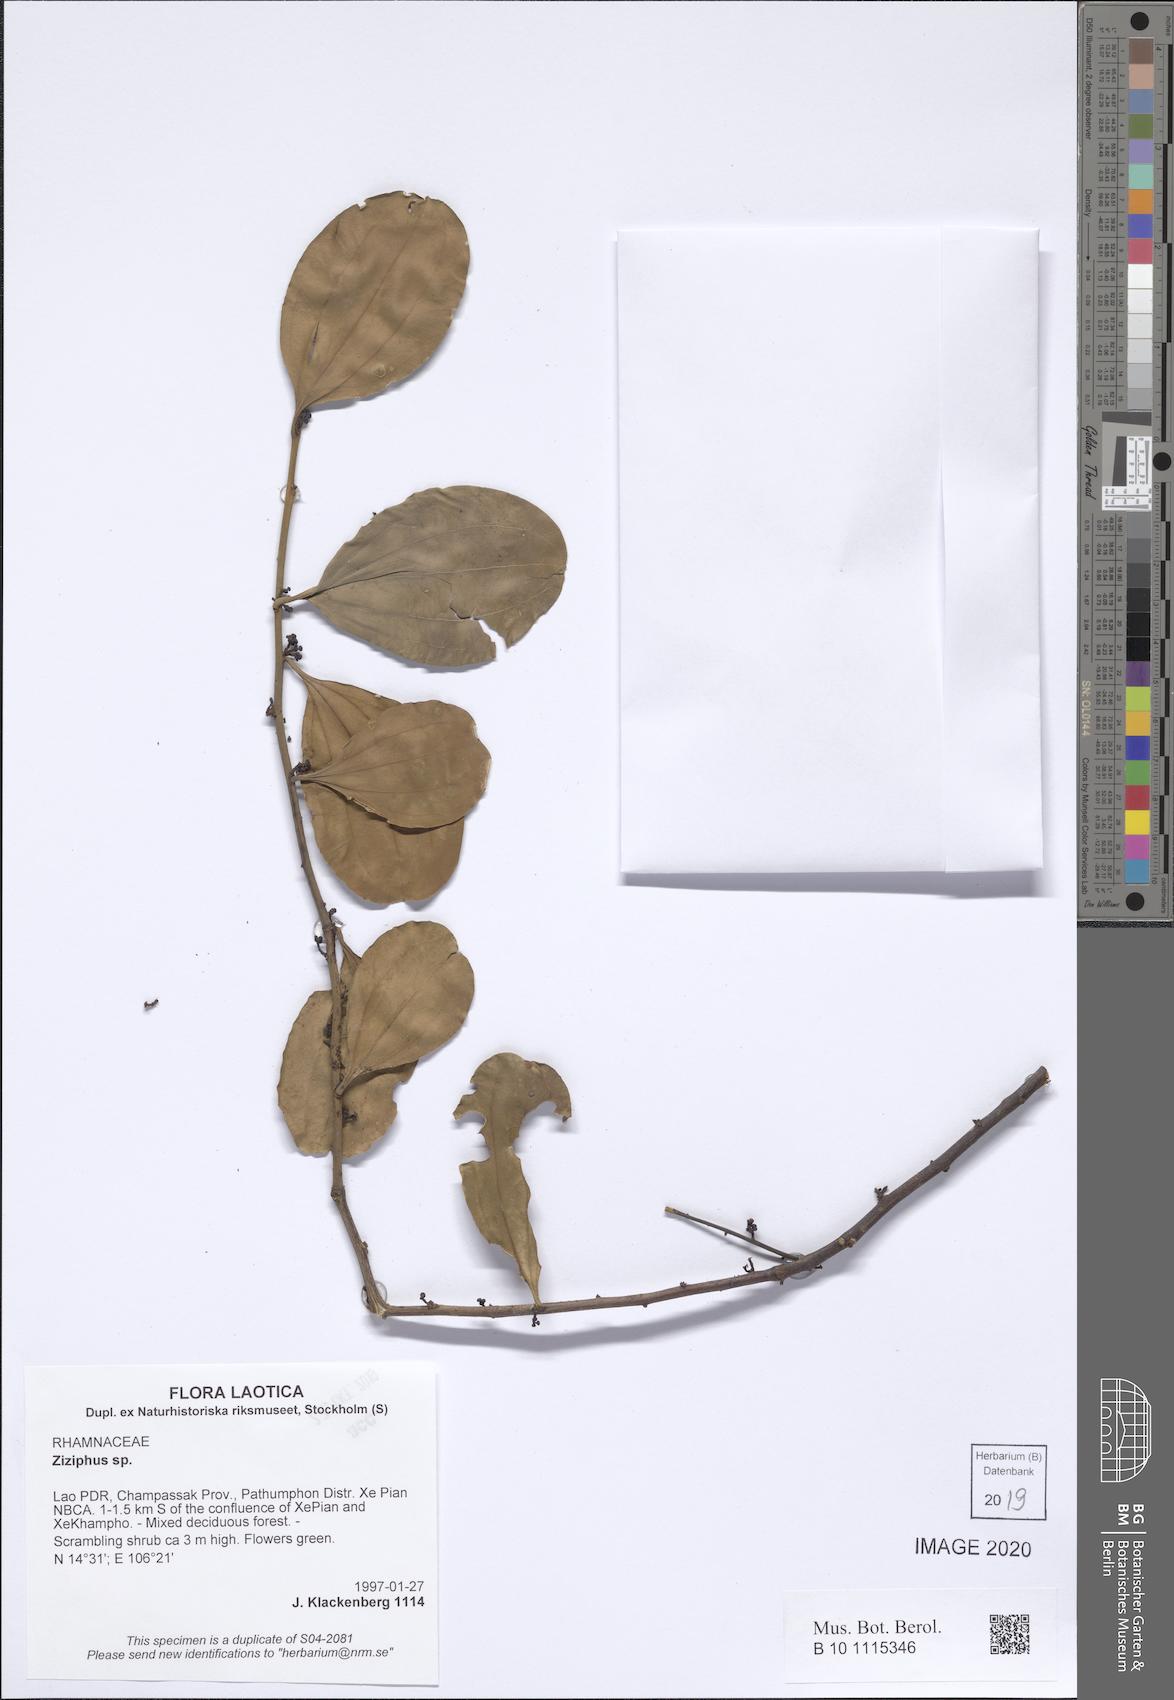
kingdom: Plantae
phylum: Tracheophyta
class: Magnoliopsida
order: Rosales
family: Rhamnaceae
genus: Ziziphus
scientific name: Ziziphus
